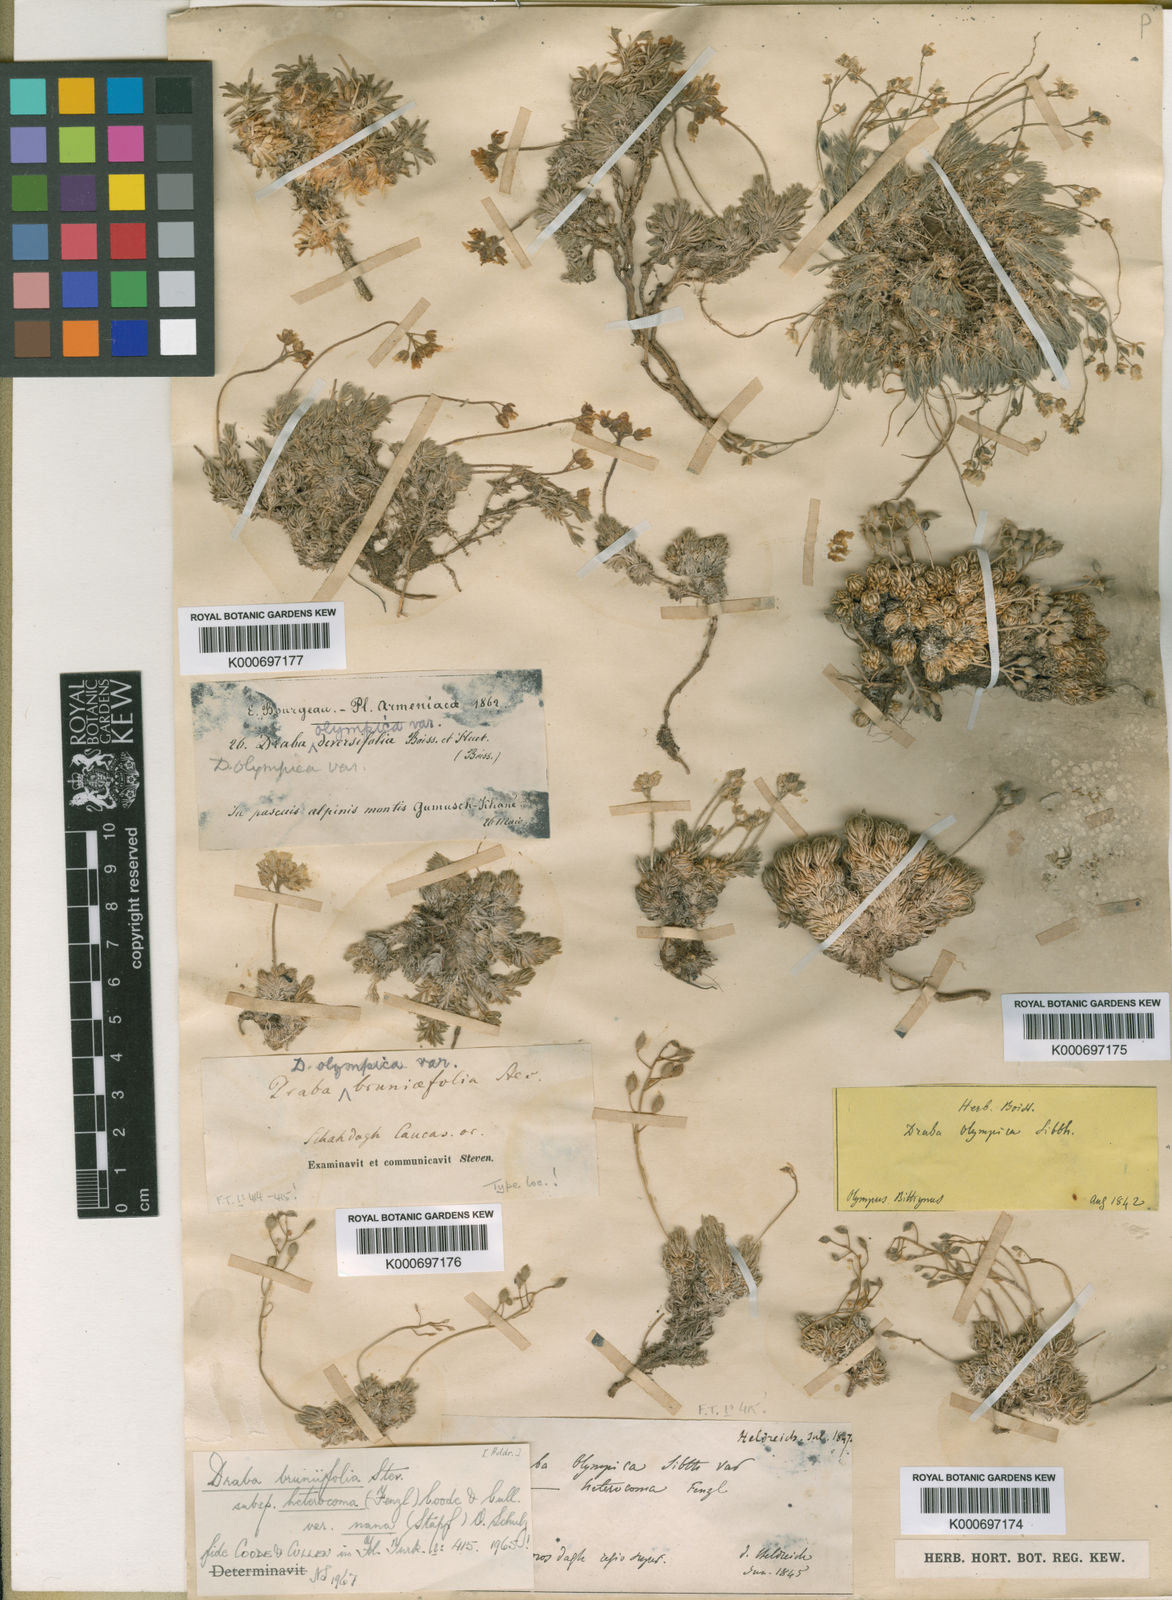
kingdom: Plantae
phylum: Tracheophyta
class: Magnoliopsida
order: Brassicales
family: Brassicaceae
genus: Draba
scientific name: Draba bruniifolia
